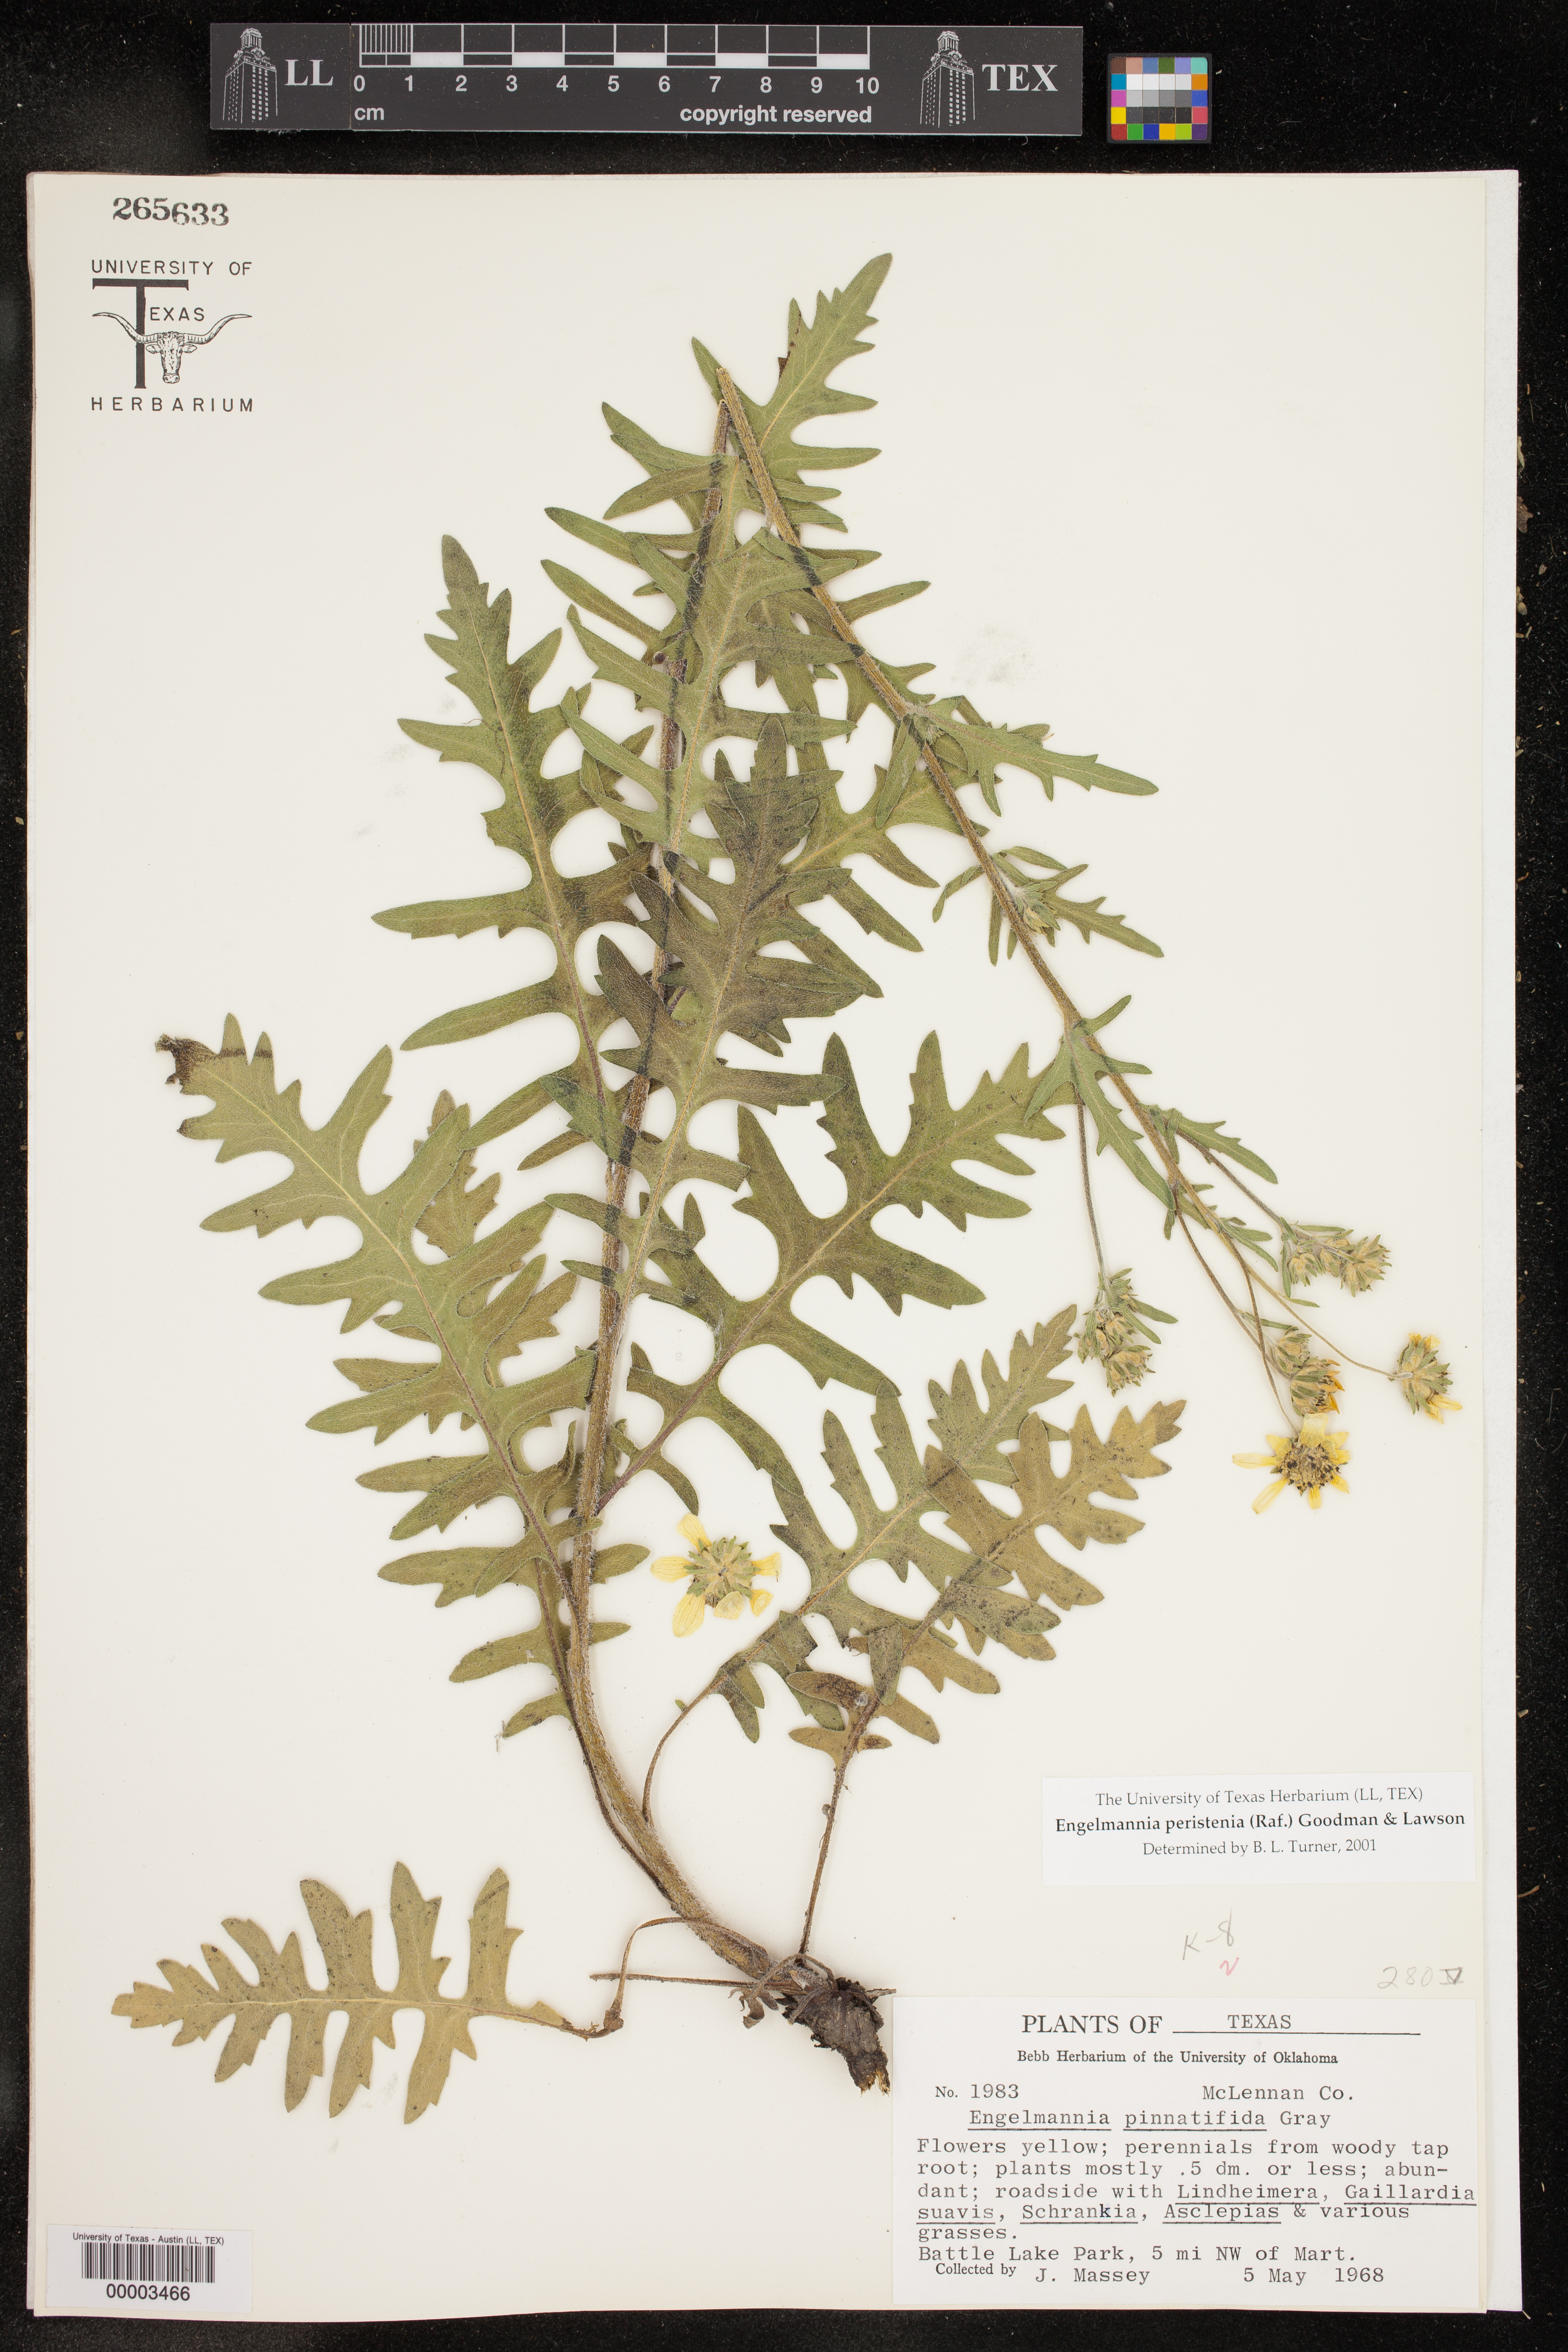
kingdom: Plantae
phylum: Tracheophyta
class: Magnoliopsida
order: Asterales
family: Asteraceae
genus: Engelmannia
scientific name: Engelmannia peristenia
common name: Engelmann's daisy
